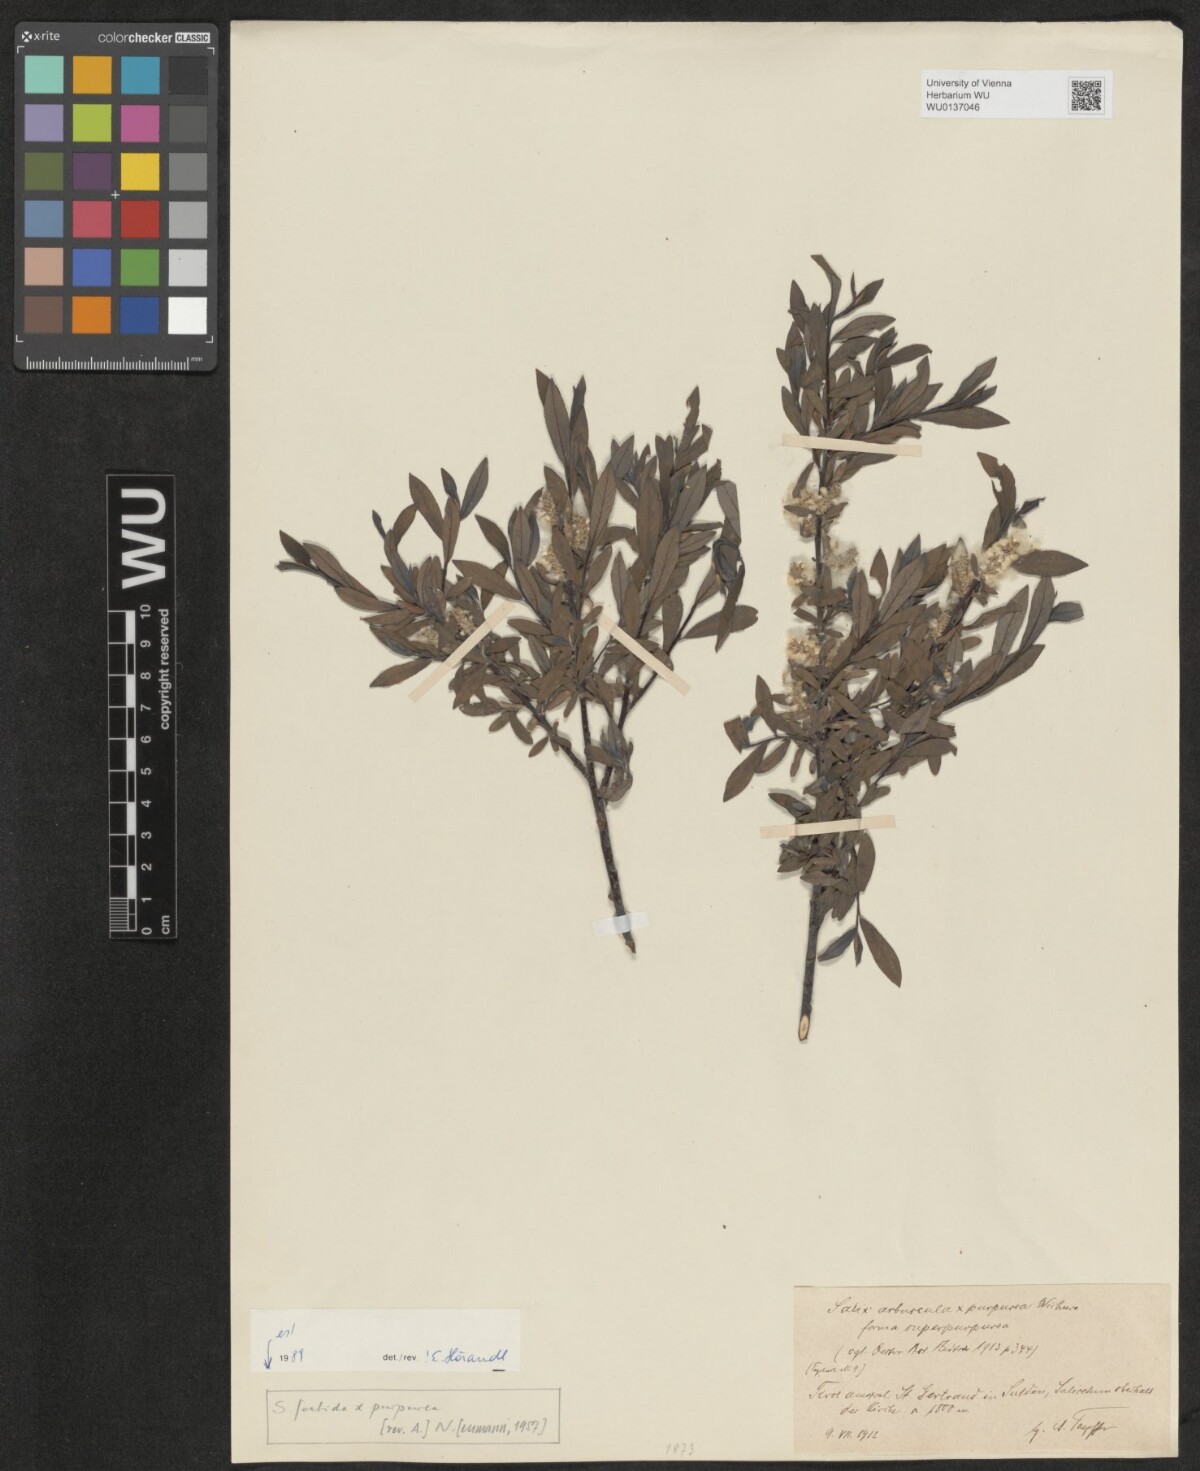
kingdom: Plantae
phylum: Tracheophyta
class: Magnoliopsida
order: Malpighiales
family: Salicaceae
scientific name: Salicaceae
